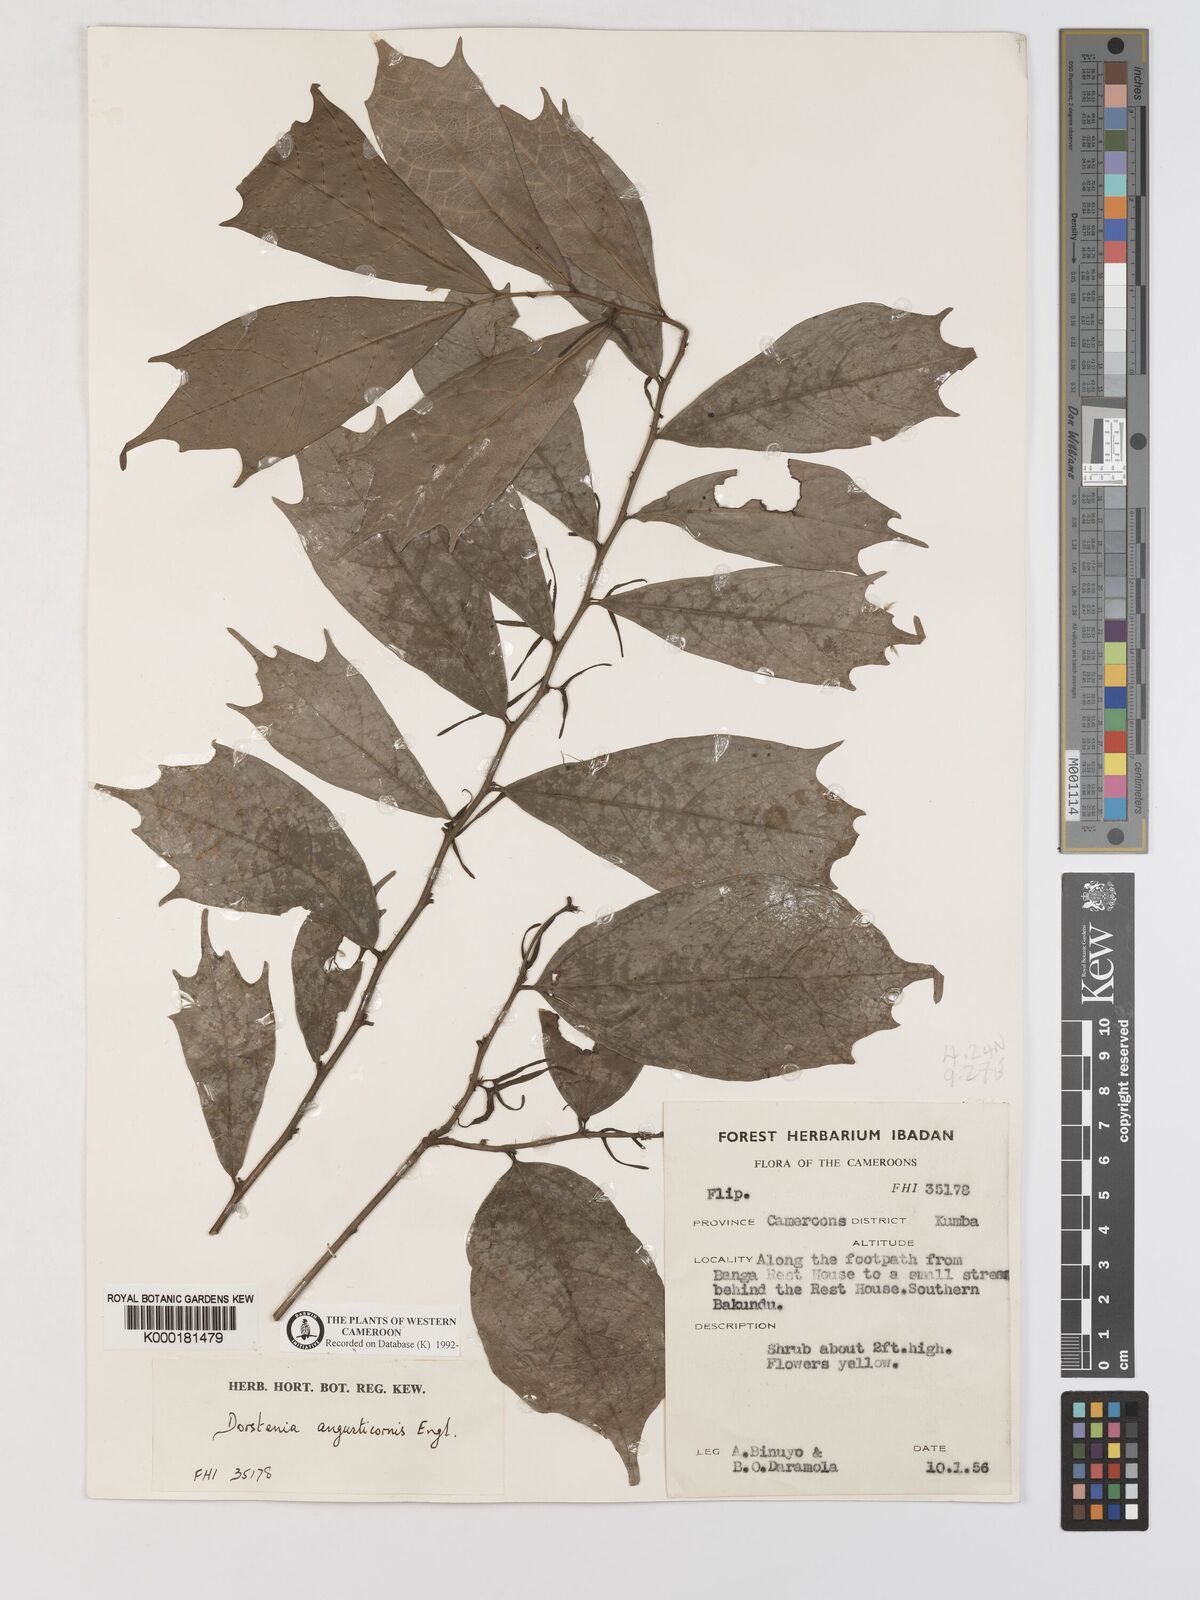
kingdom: Plantae
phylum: Tracheophyta
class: Magnoliopsida
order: Rosales
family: Moraceae
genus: Hijmania
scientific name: Hijmania angusticornis
